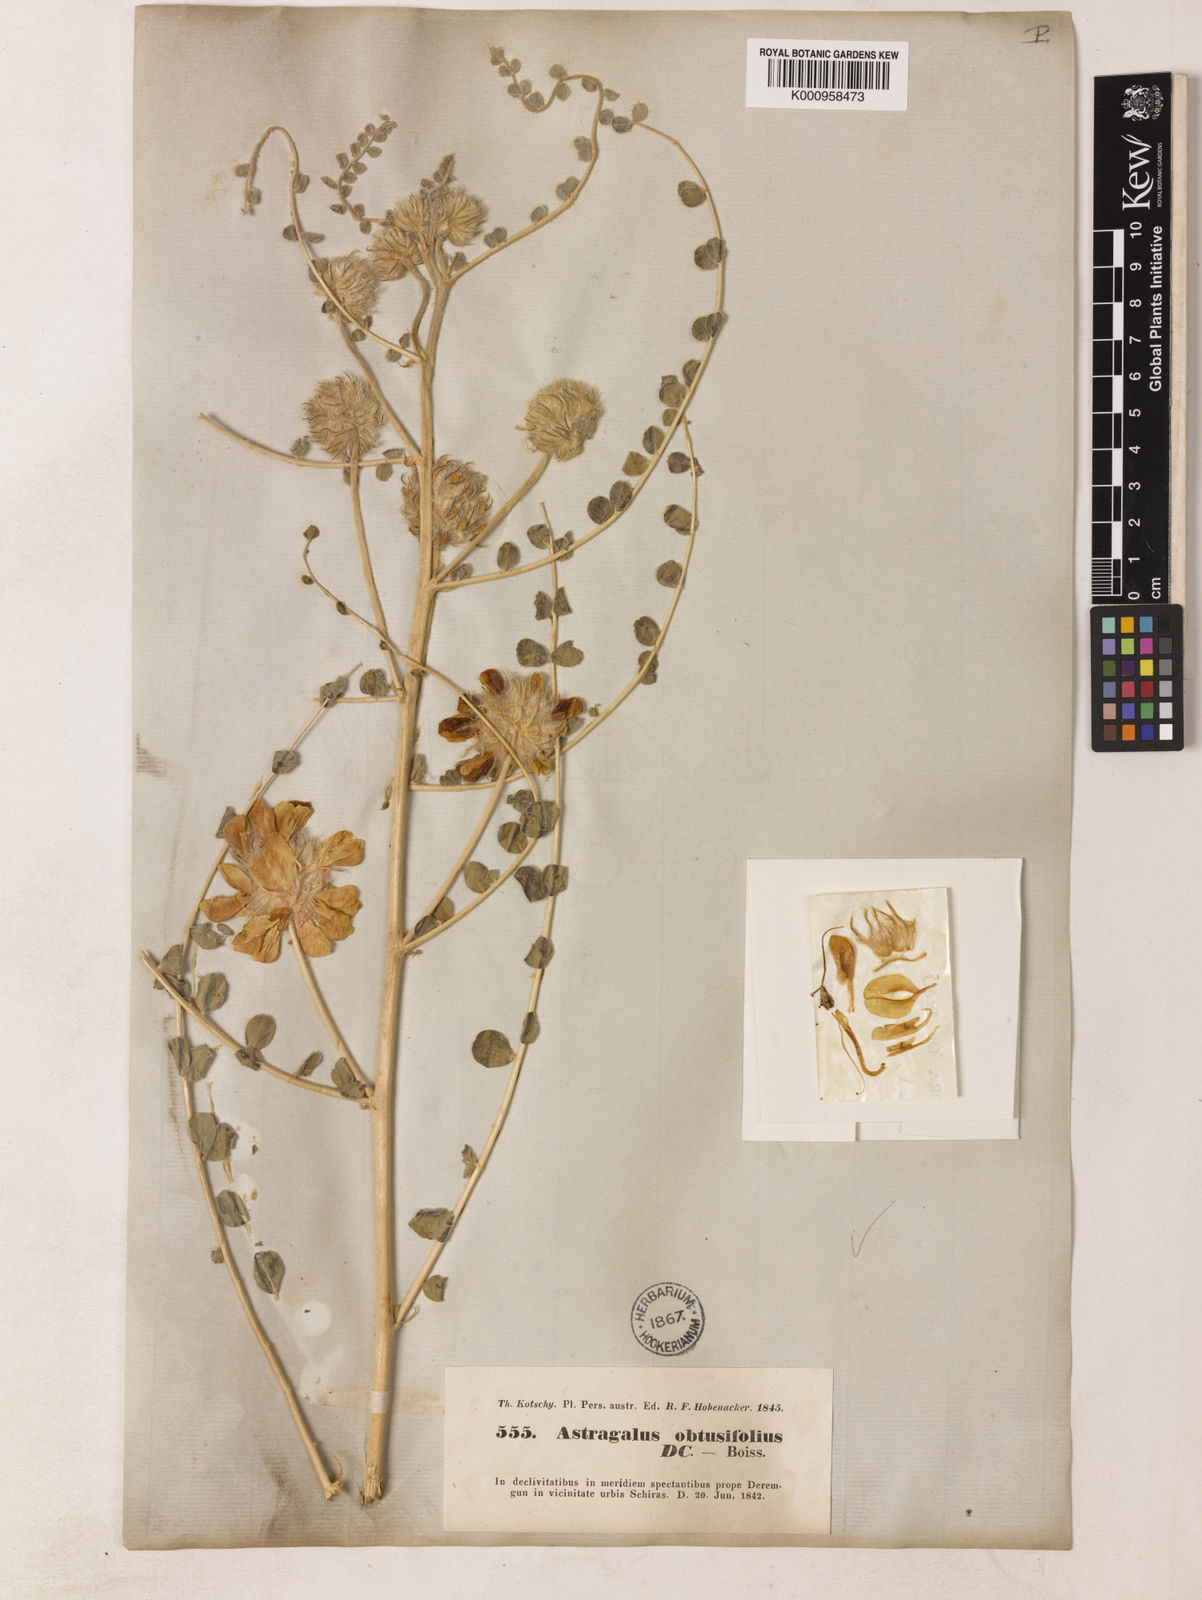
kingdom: Plantae
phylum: Tracheophyta
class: Magnoliopsida
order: Fabales
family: Fabaceae
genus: Astragalus
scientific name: Astragalus obtusifolius
